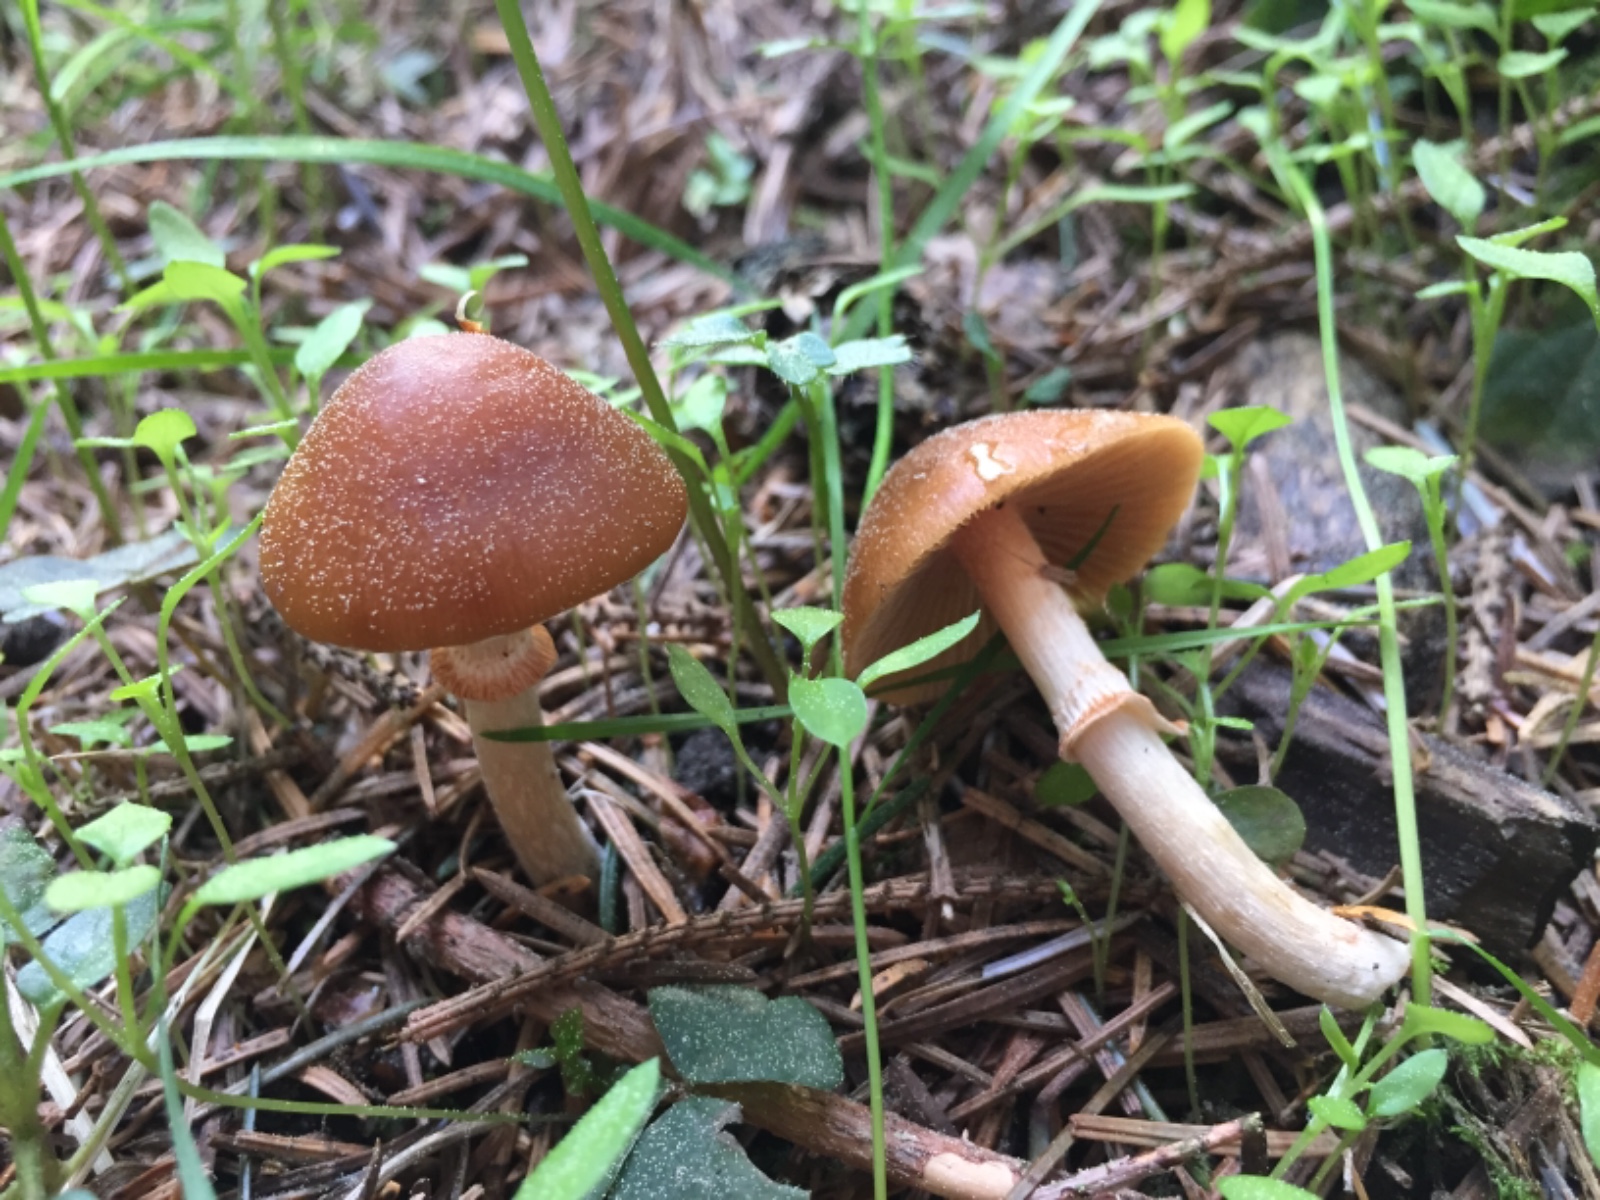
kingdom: Fungi
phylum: Basidiomycota
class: Agaricomycetes
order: Agaricales
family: Bolbitiaceae
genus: Conocybe
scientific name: Conocybe aporos
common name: tidlig dansehat
